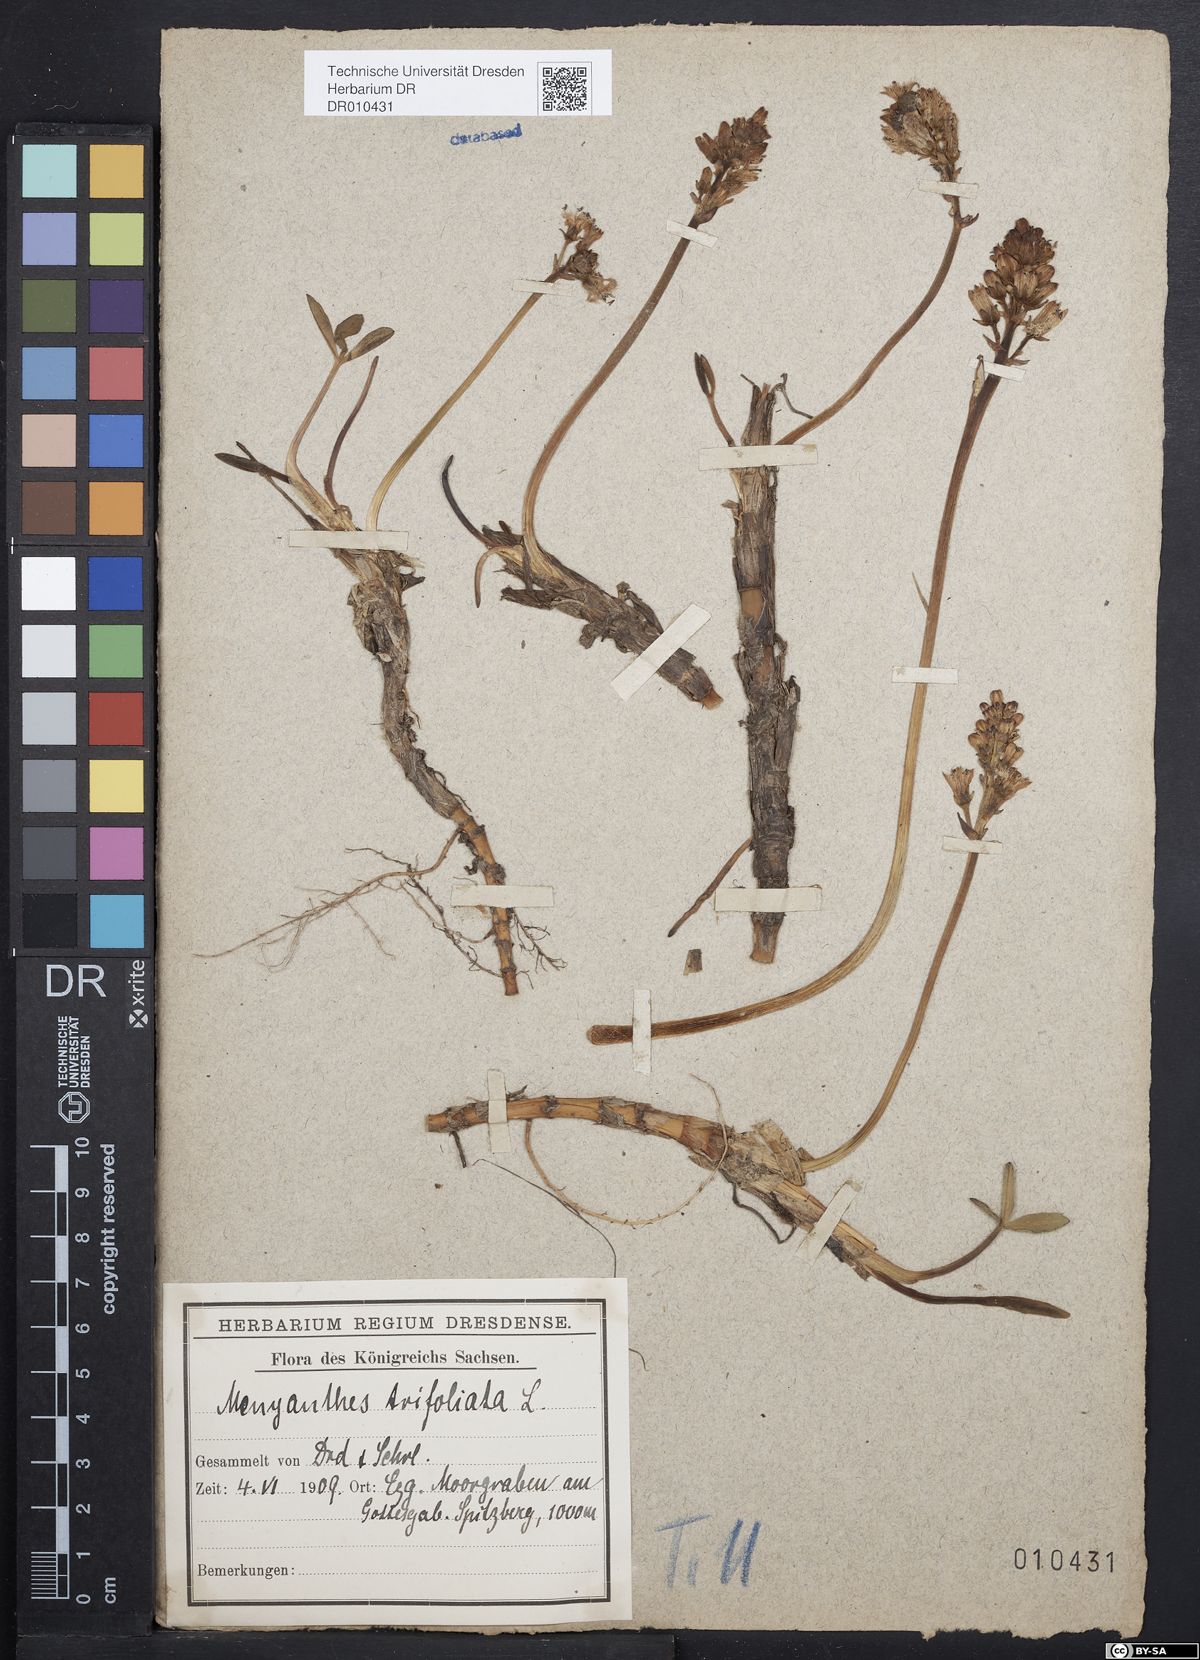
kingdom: Plantae
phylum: Tracheophyta
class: Magnoliopsida
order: Asterales
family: Menyanthaceae
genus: Menyanthes
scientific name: Menyanthes trifoliata
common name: Bogbean
